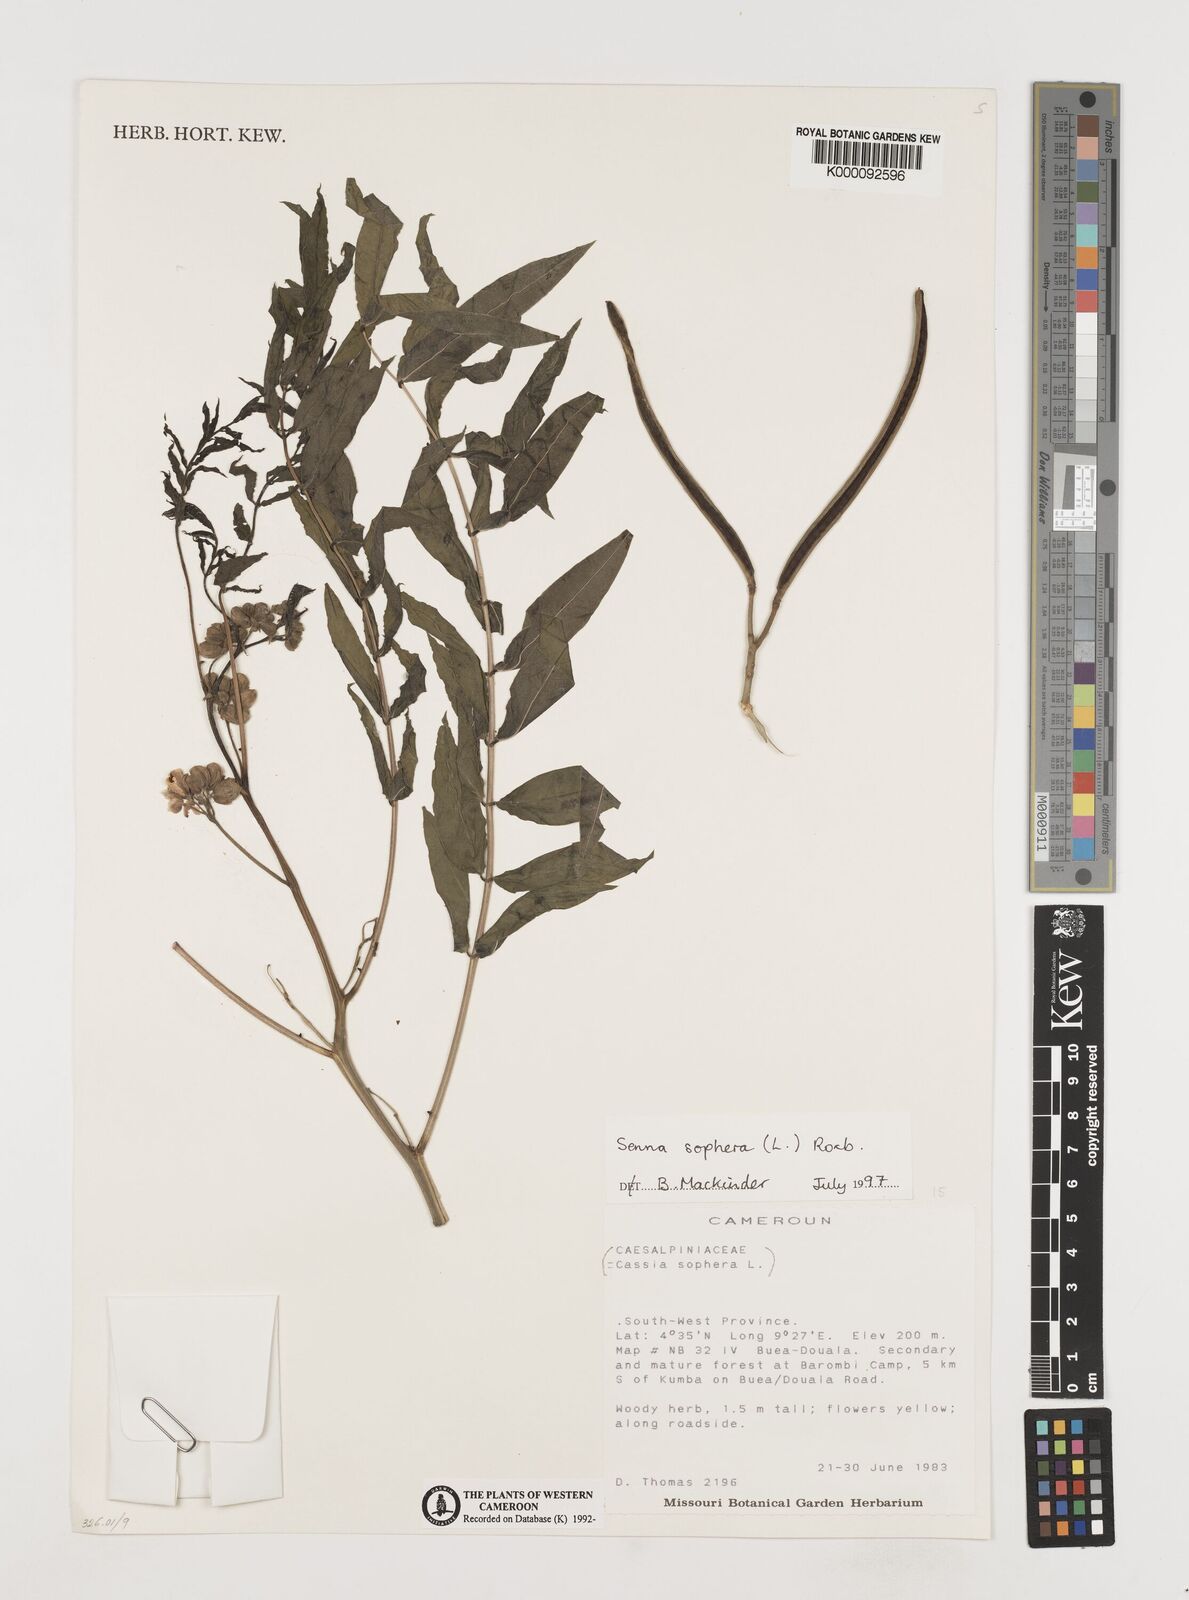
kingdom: Plantae
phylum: Tracheophyta
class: Magnoliopsida
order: Fabales
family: Fabaceae
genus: Senna
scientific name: Senna sophera
